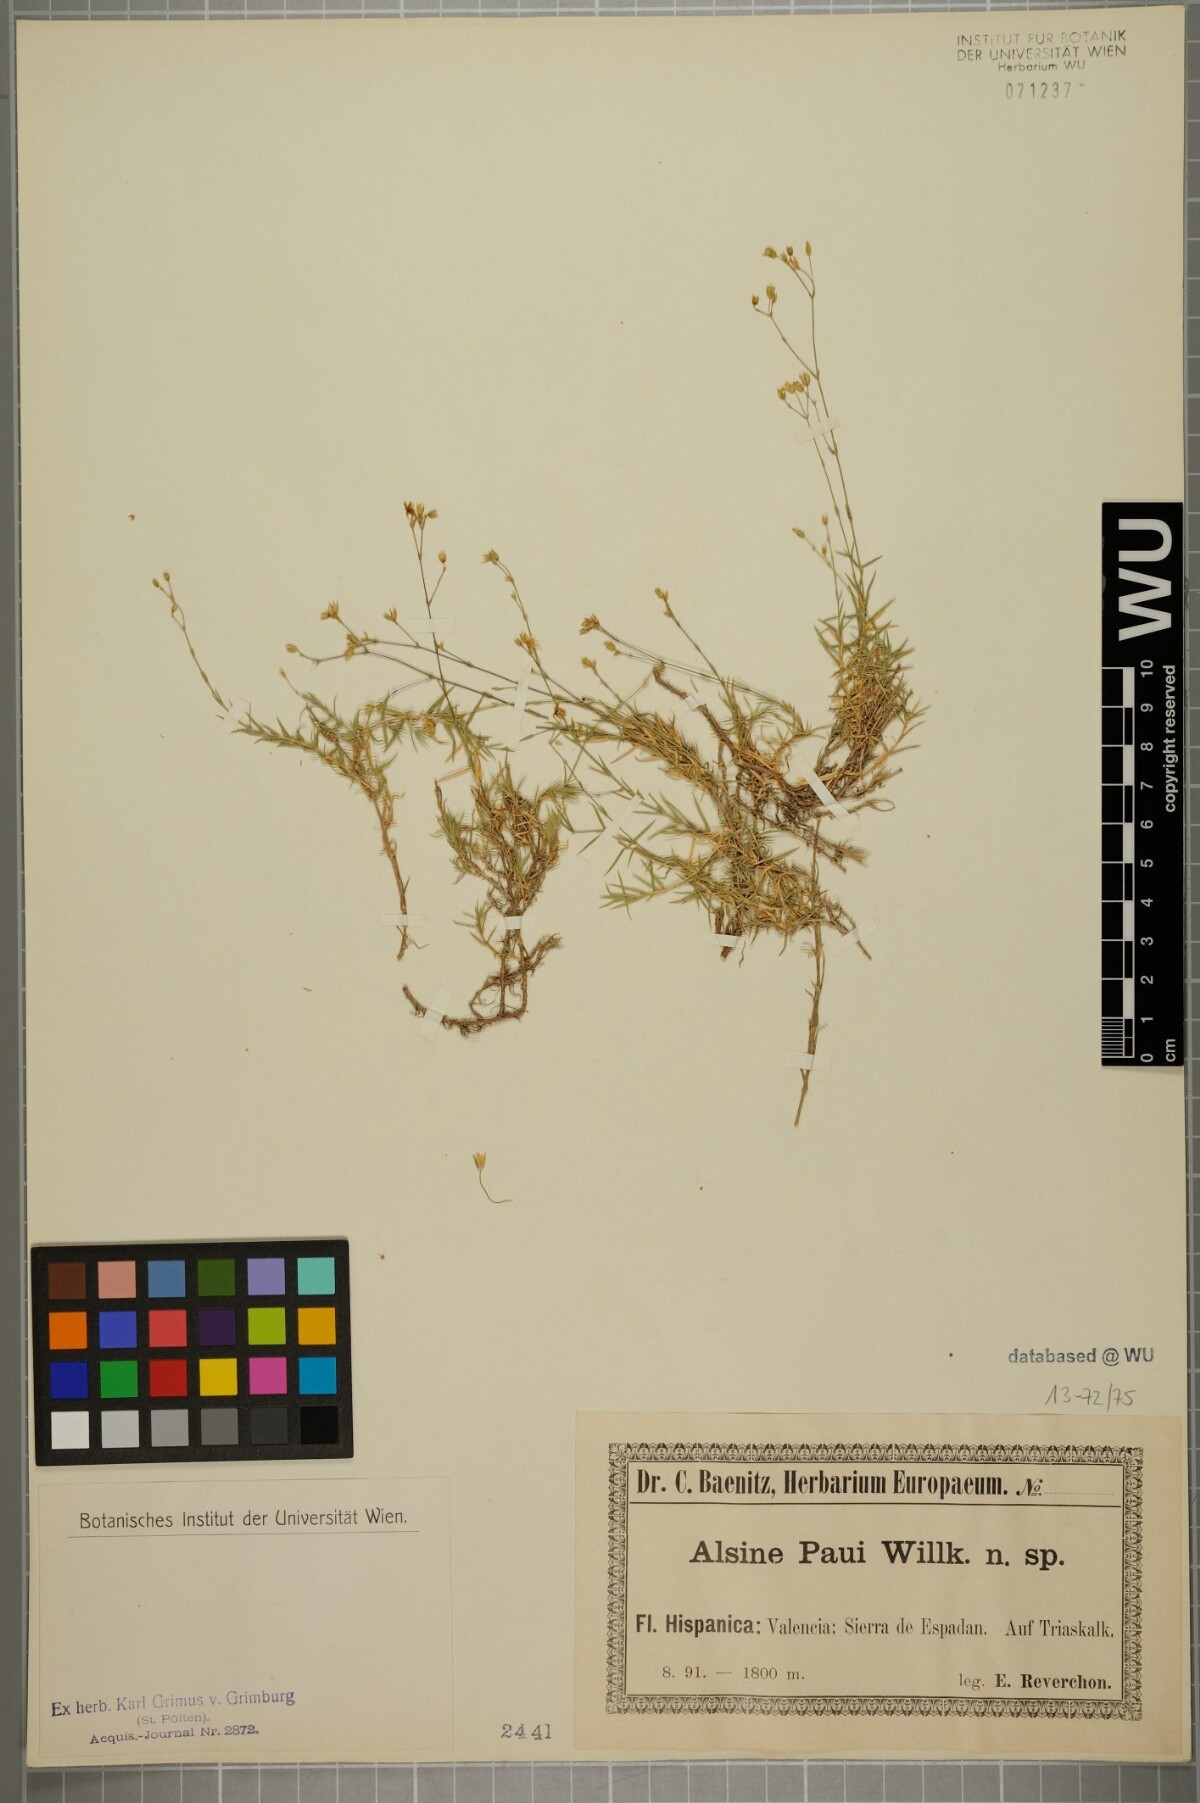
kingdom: Plantae
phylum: Tracheophyta
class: Magnoliopsida
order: Caryophyllales
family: Caryophyllaceae
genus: Facchinia
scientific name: Facchinia valentina
